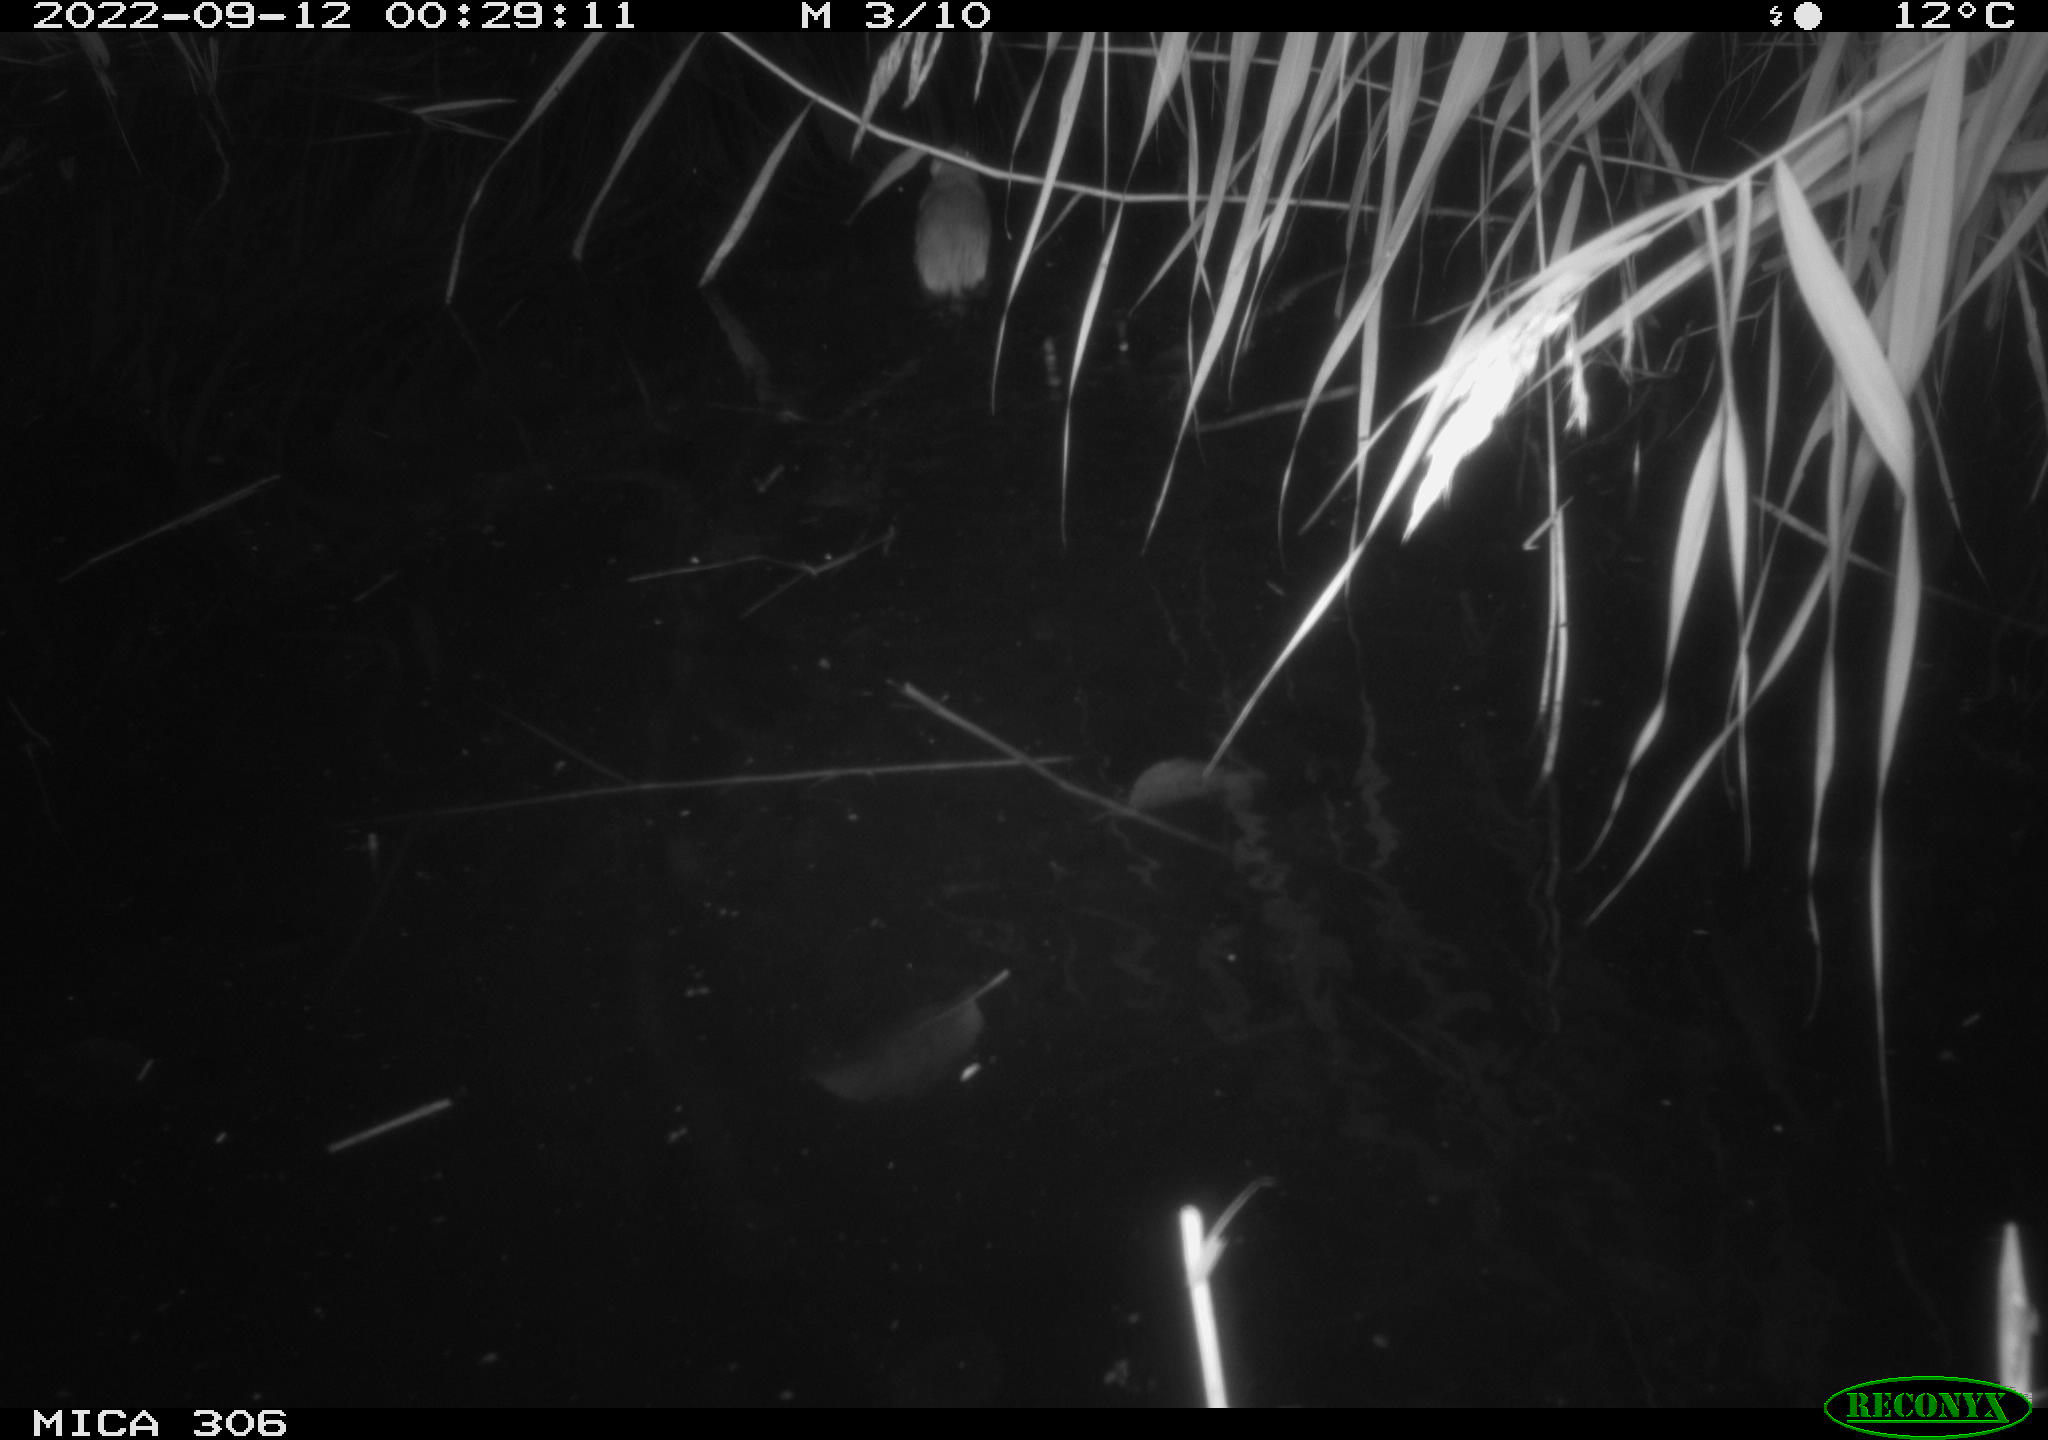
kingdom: Animalia
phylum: Chordata
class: Mammalia
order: Rodentia
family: Muridae
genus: Rattus
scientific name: Rattus norvegicus
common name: Brown rat
